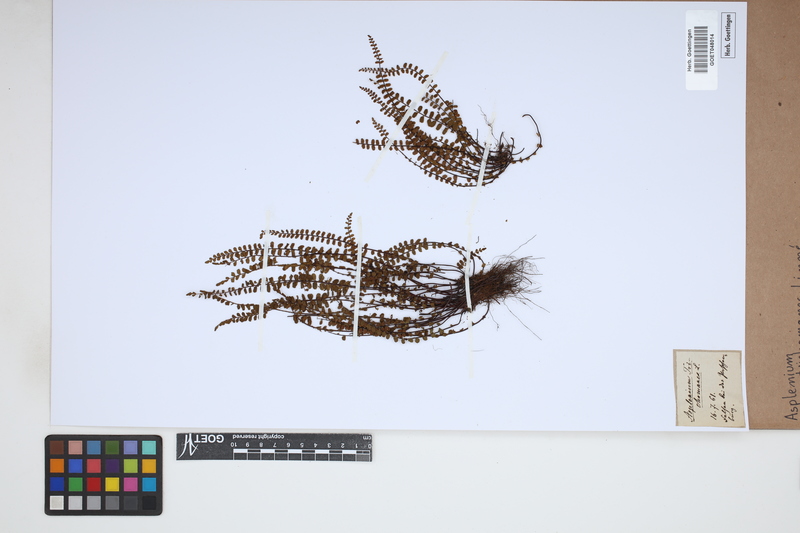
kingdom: Plantae
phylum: Tracheophyta
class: Polypodiopsida
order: Polypodiales
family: Aspleniaceae
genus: Asplenium
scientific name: Asplenium trichomanes
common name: Maidenhair spleenwort
